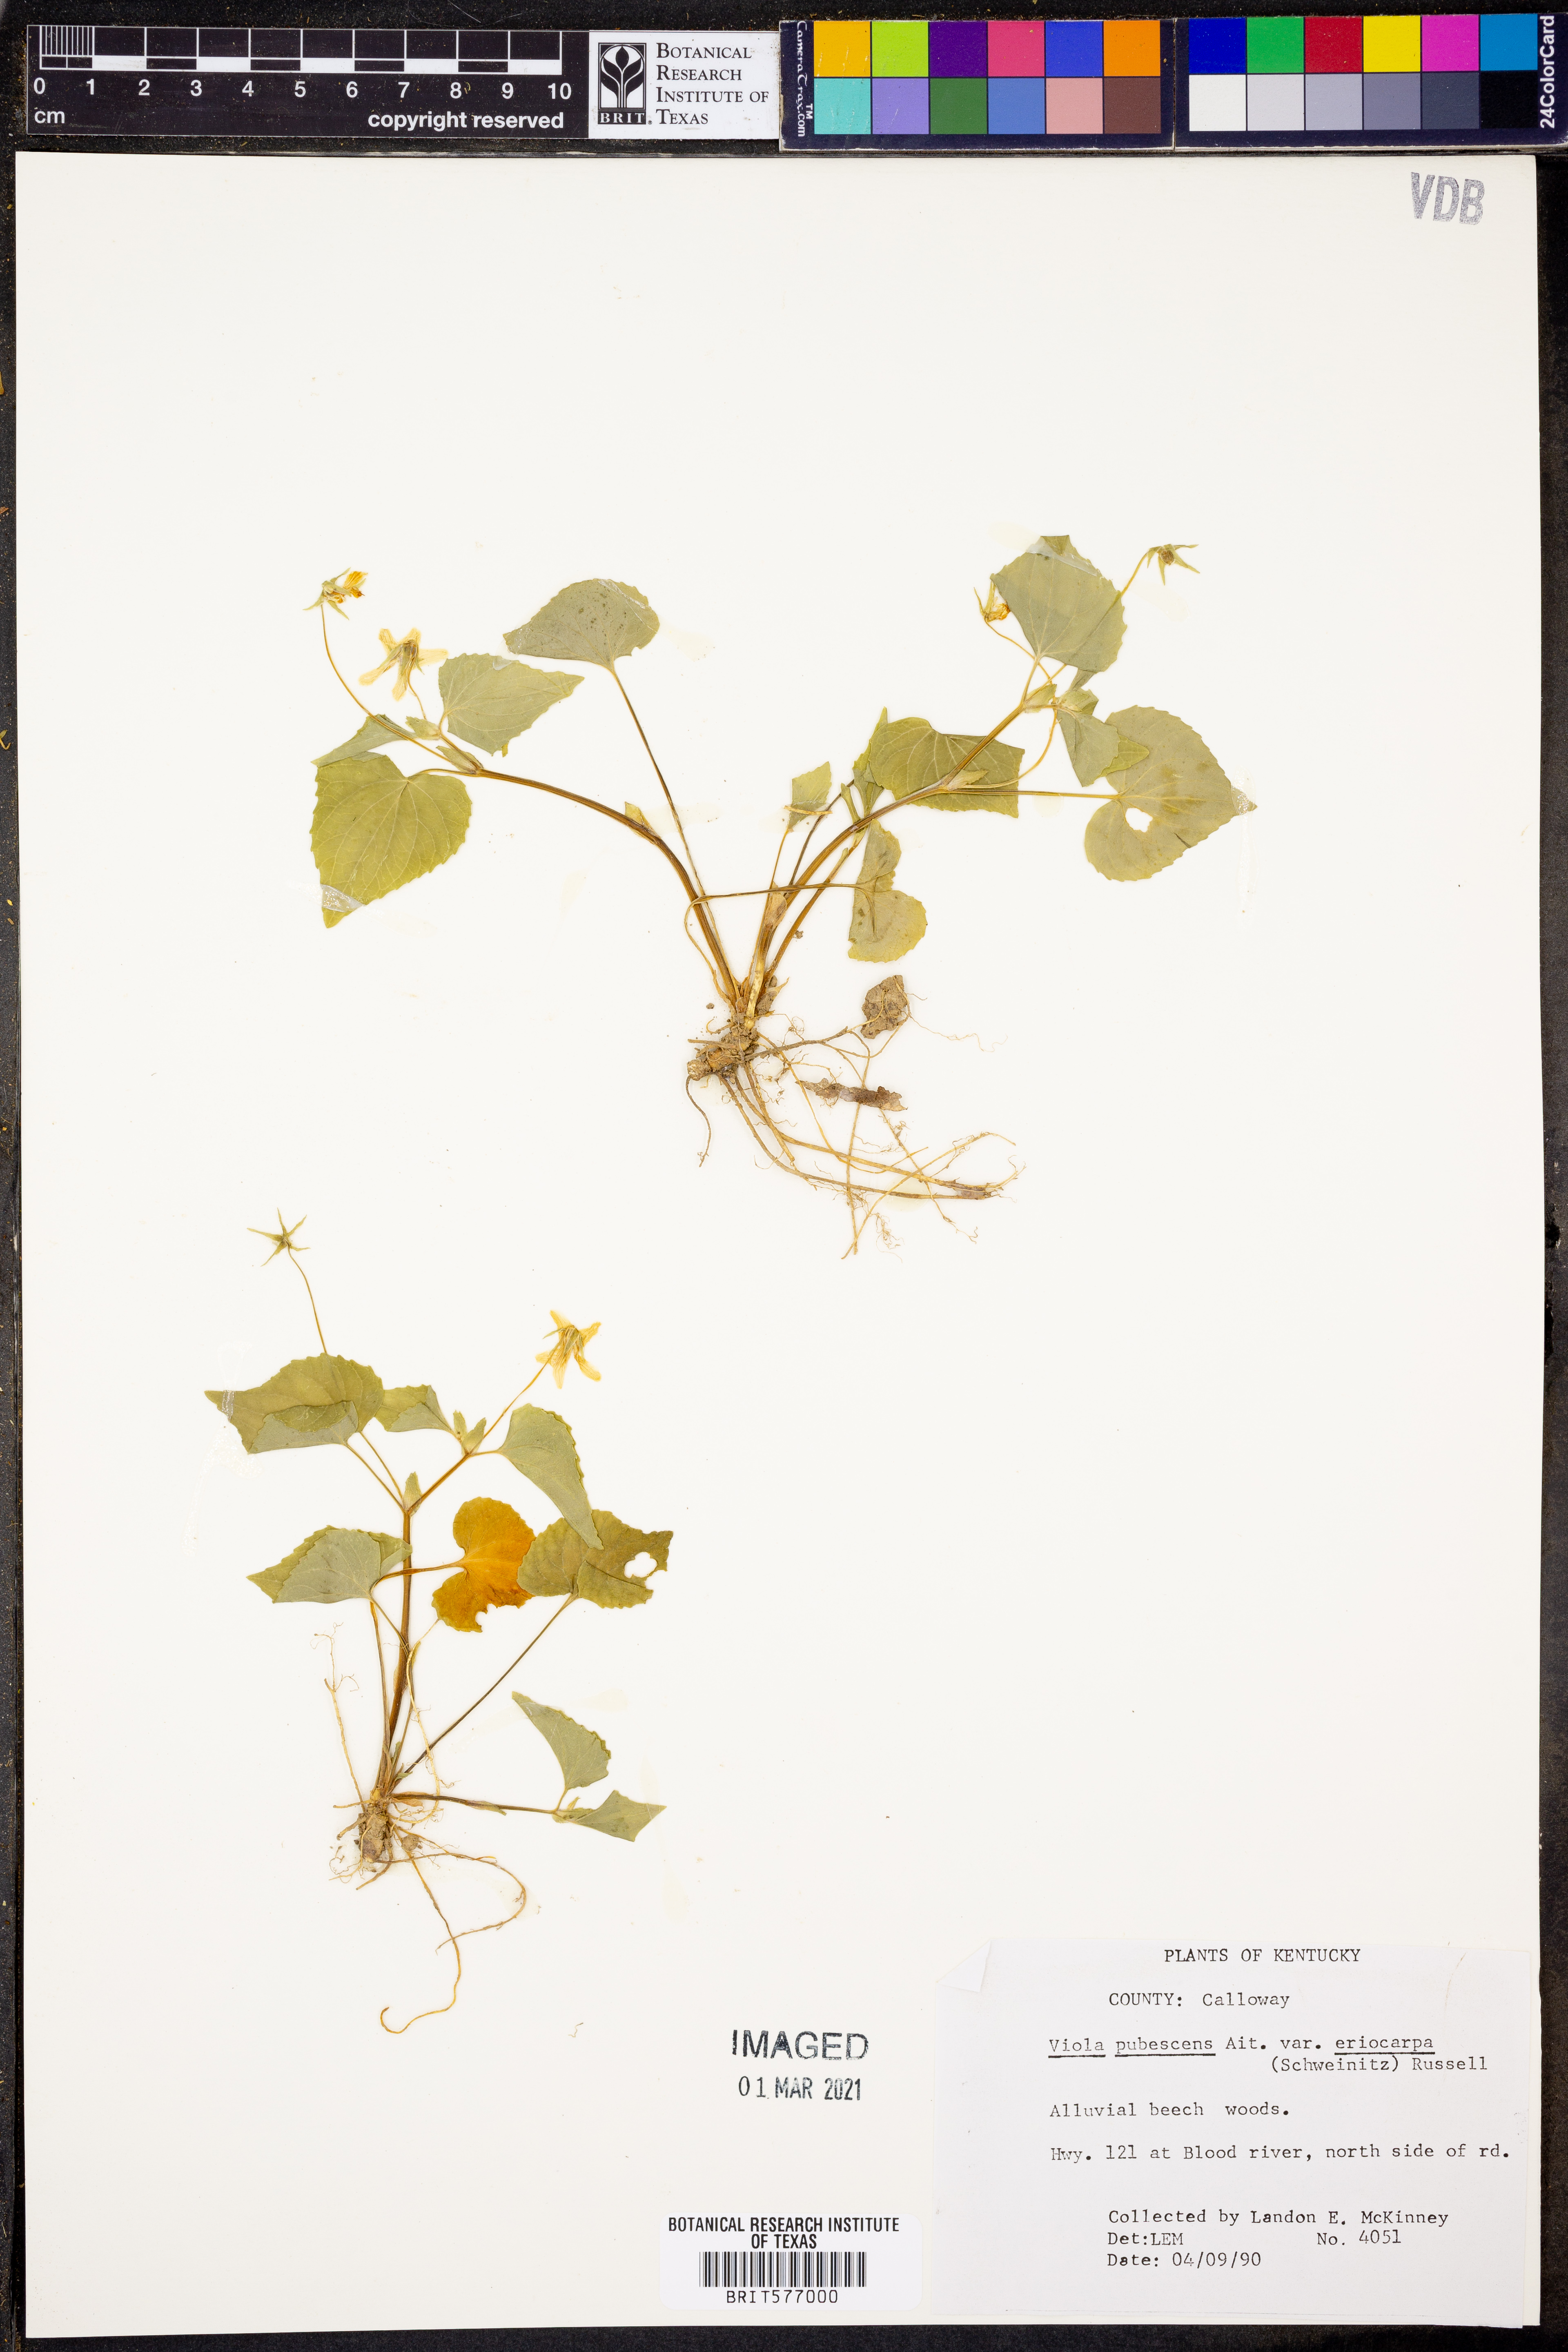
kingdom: Plantae
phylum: Tracheophyta
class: Magnoliopsida
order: Malpighiales
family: Violaceae
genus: Viola
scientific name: Viola eriocarpa
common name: Smooth yellow violet
